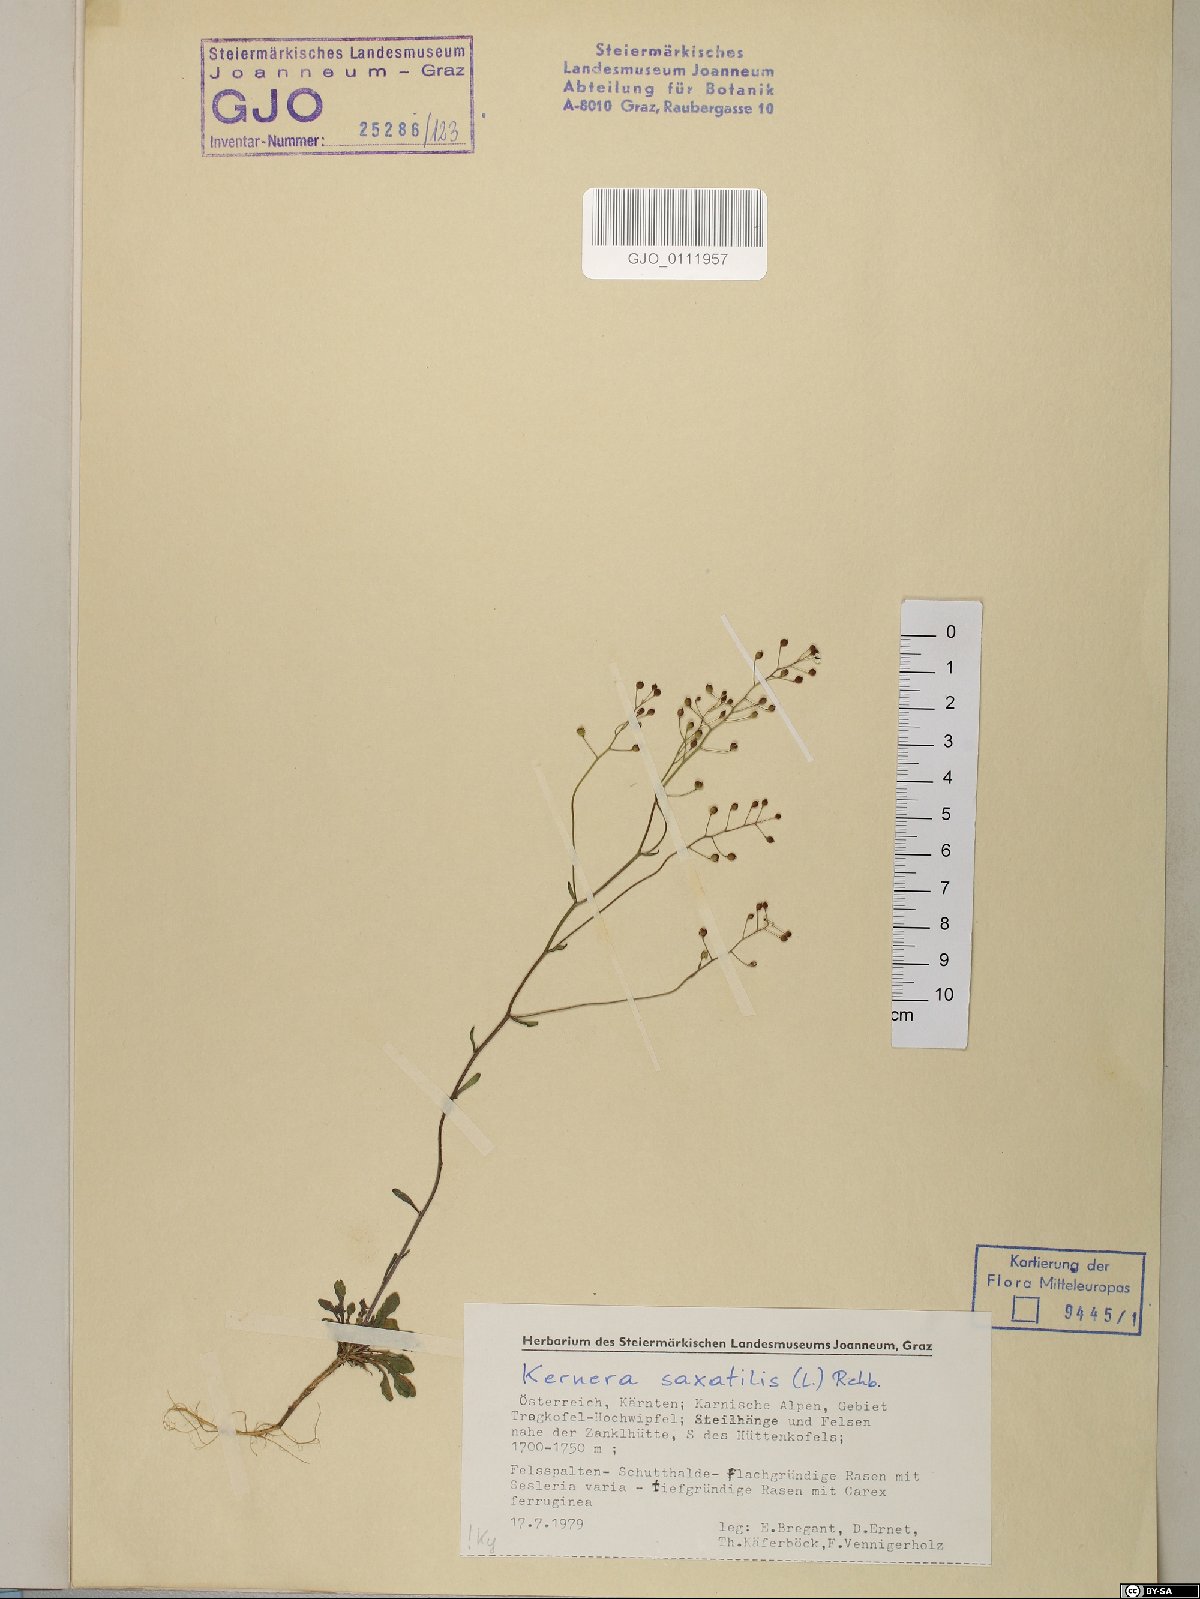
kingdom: Plantae
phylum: Tracheophyta
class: Magnoliopsida
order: Brassicales
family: Brassicaceae
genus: Kernera
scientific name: Kernera saxatilis
